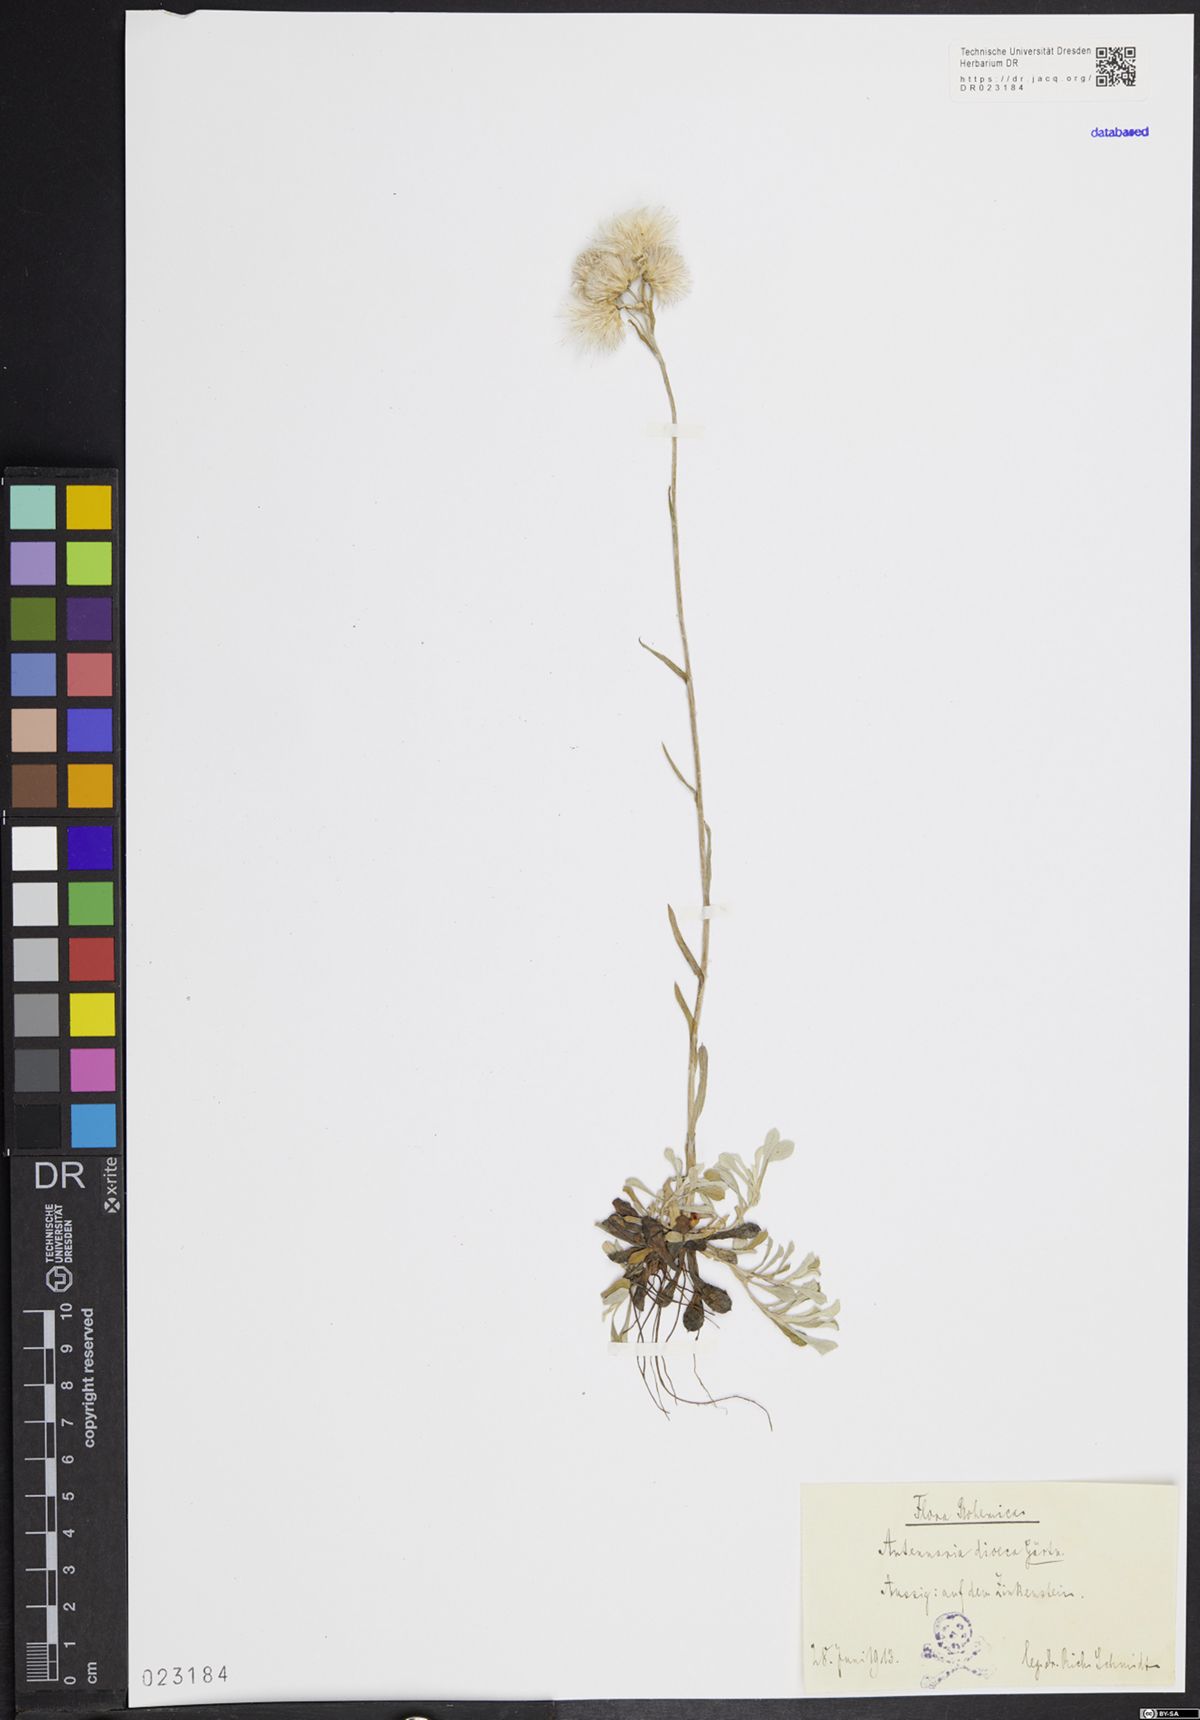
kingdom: Plantae
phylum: Tracheophyta
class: Magnoliopsida
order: Asterales
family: Asteraceae
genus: Antennaria
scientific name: Antennaria dioica
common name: Mountain everlasting
